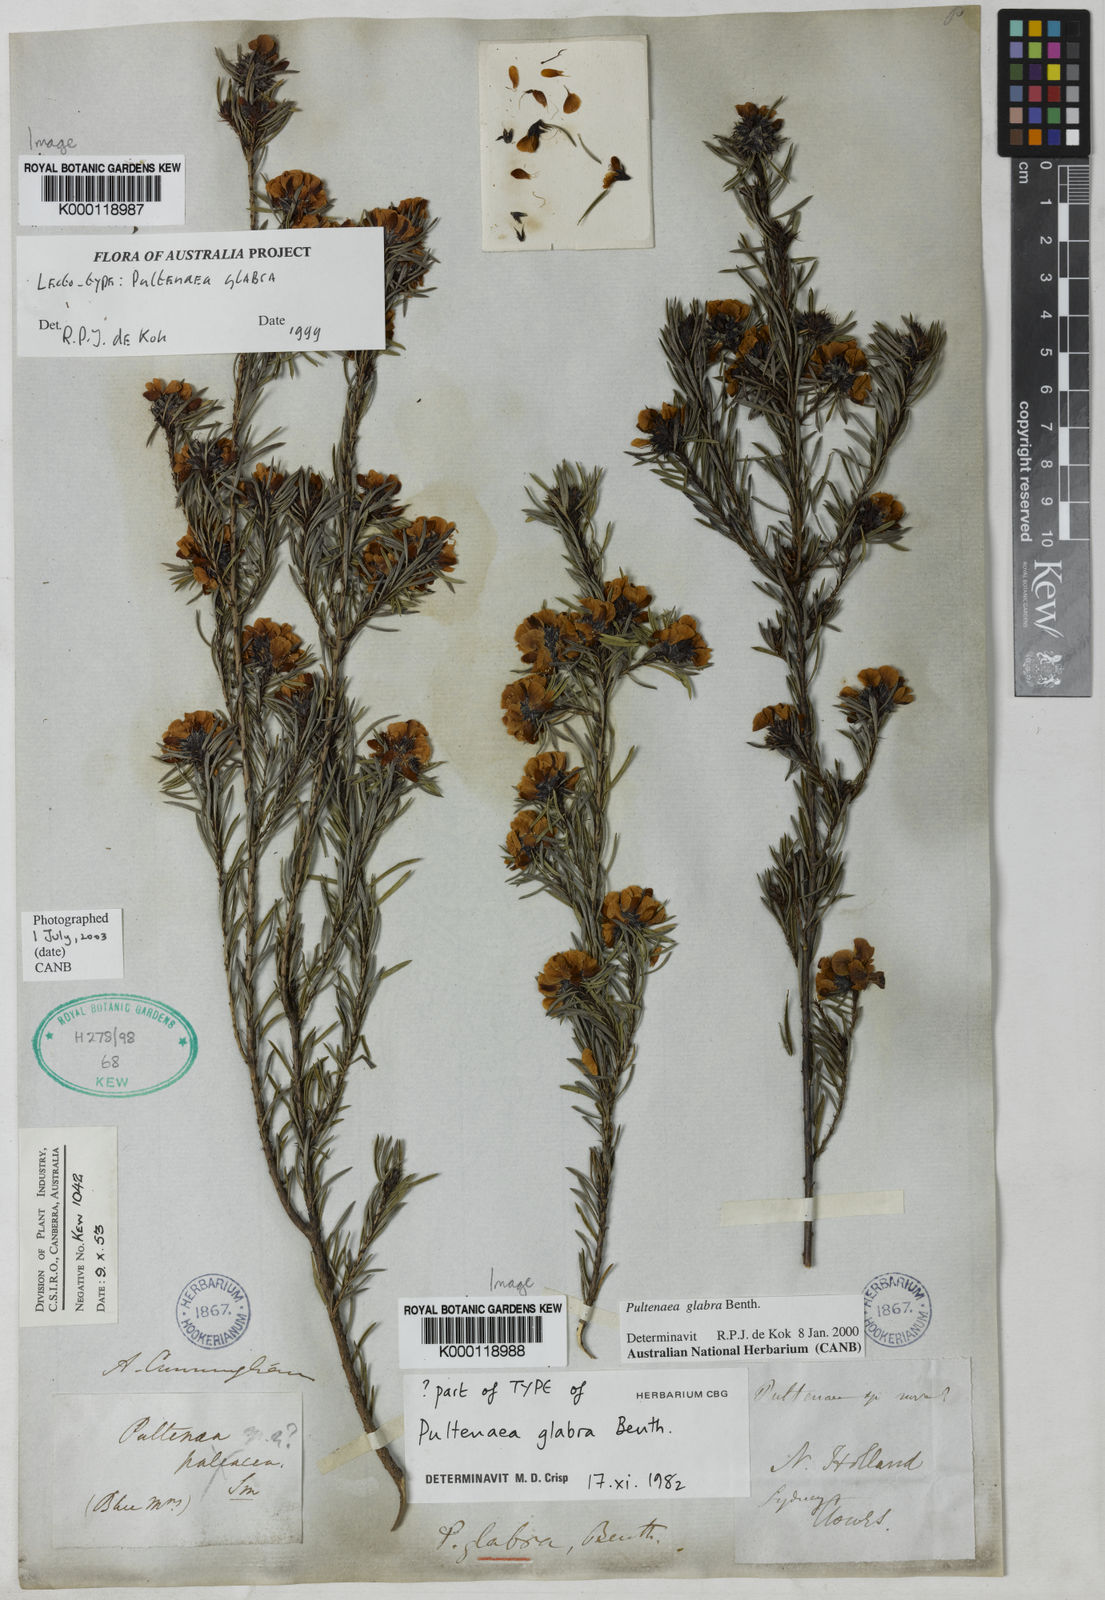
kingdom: Plantae
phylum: Tracheophyta
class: Magnoliopsida
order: Fabales
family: Fabaceae
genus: Pultenaea
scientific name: Pultenaea glabra
